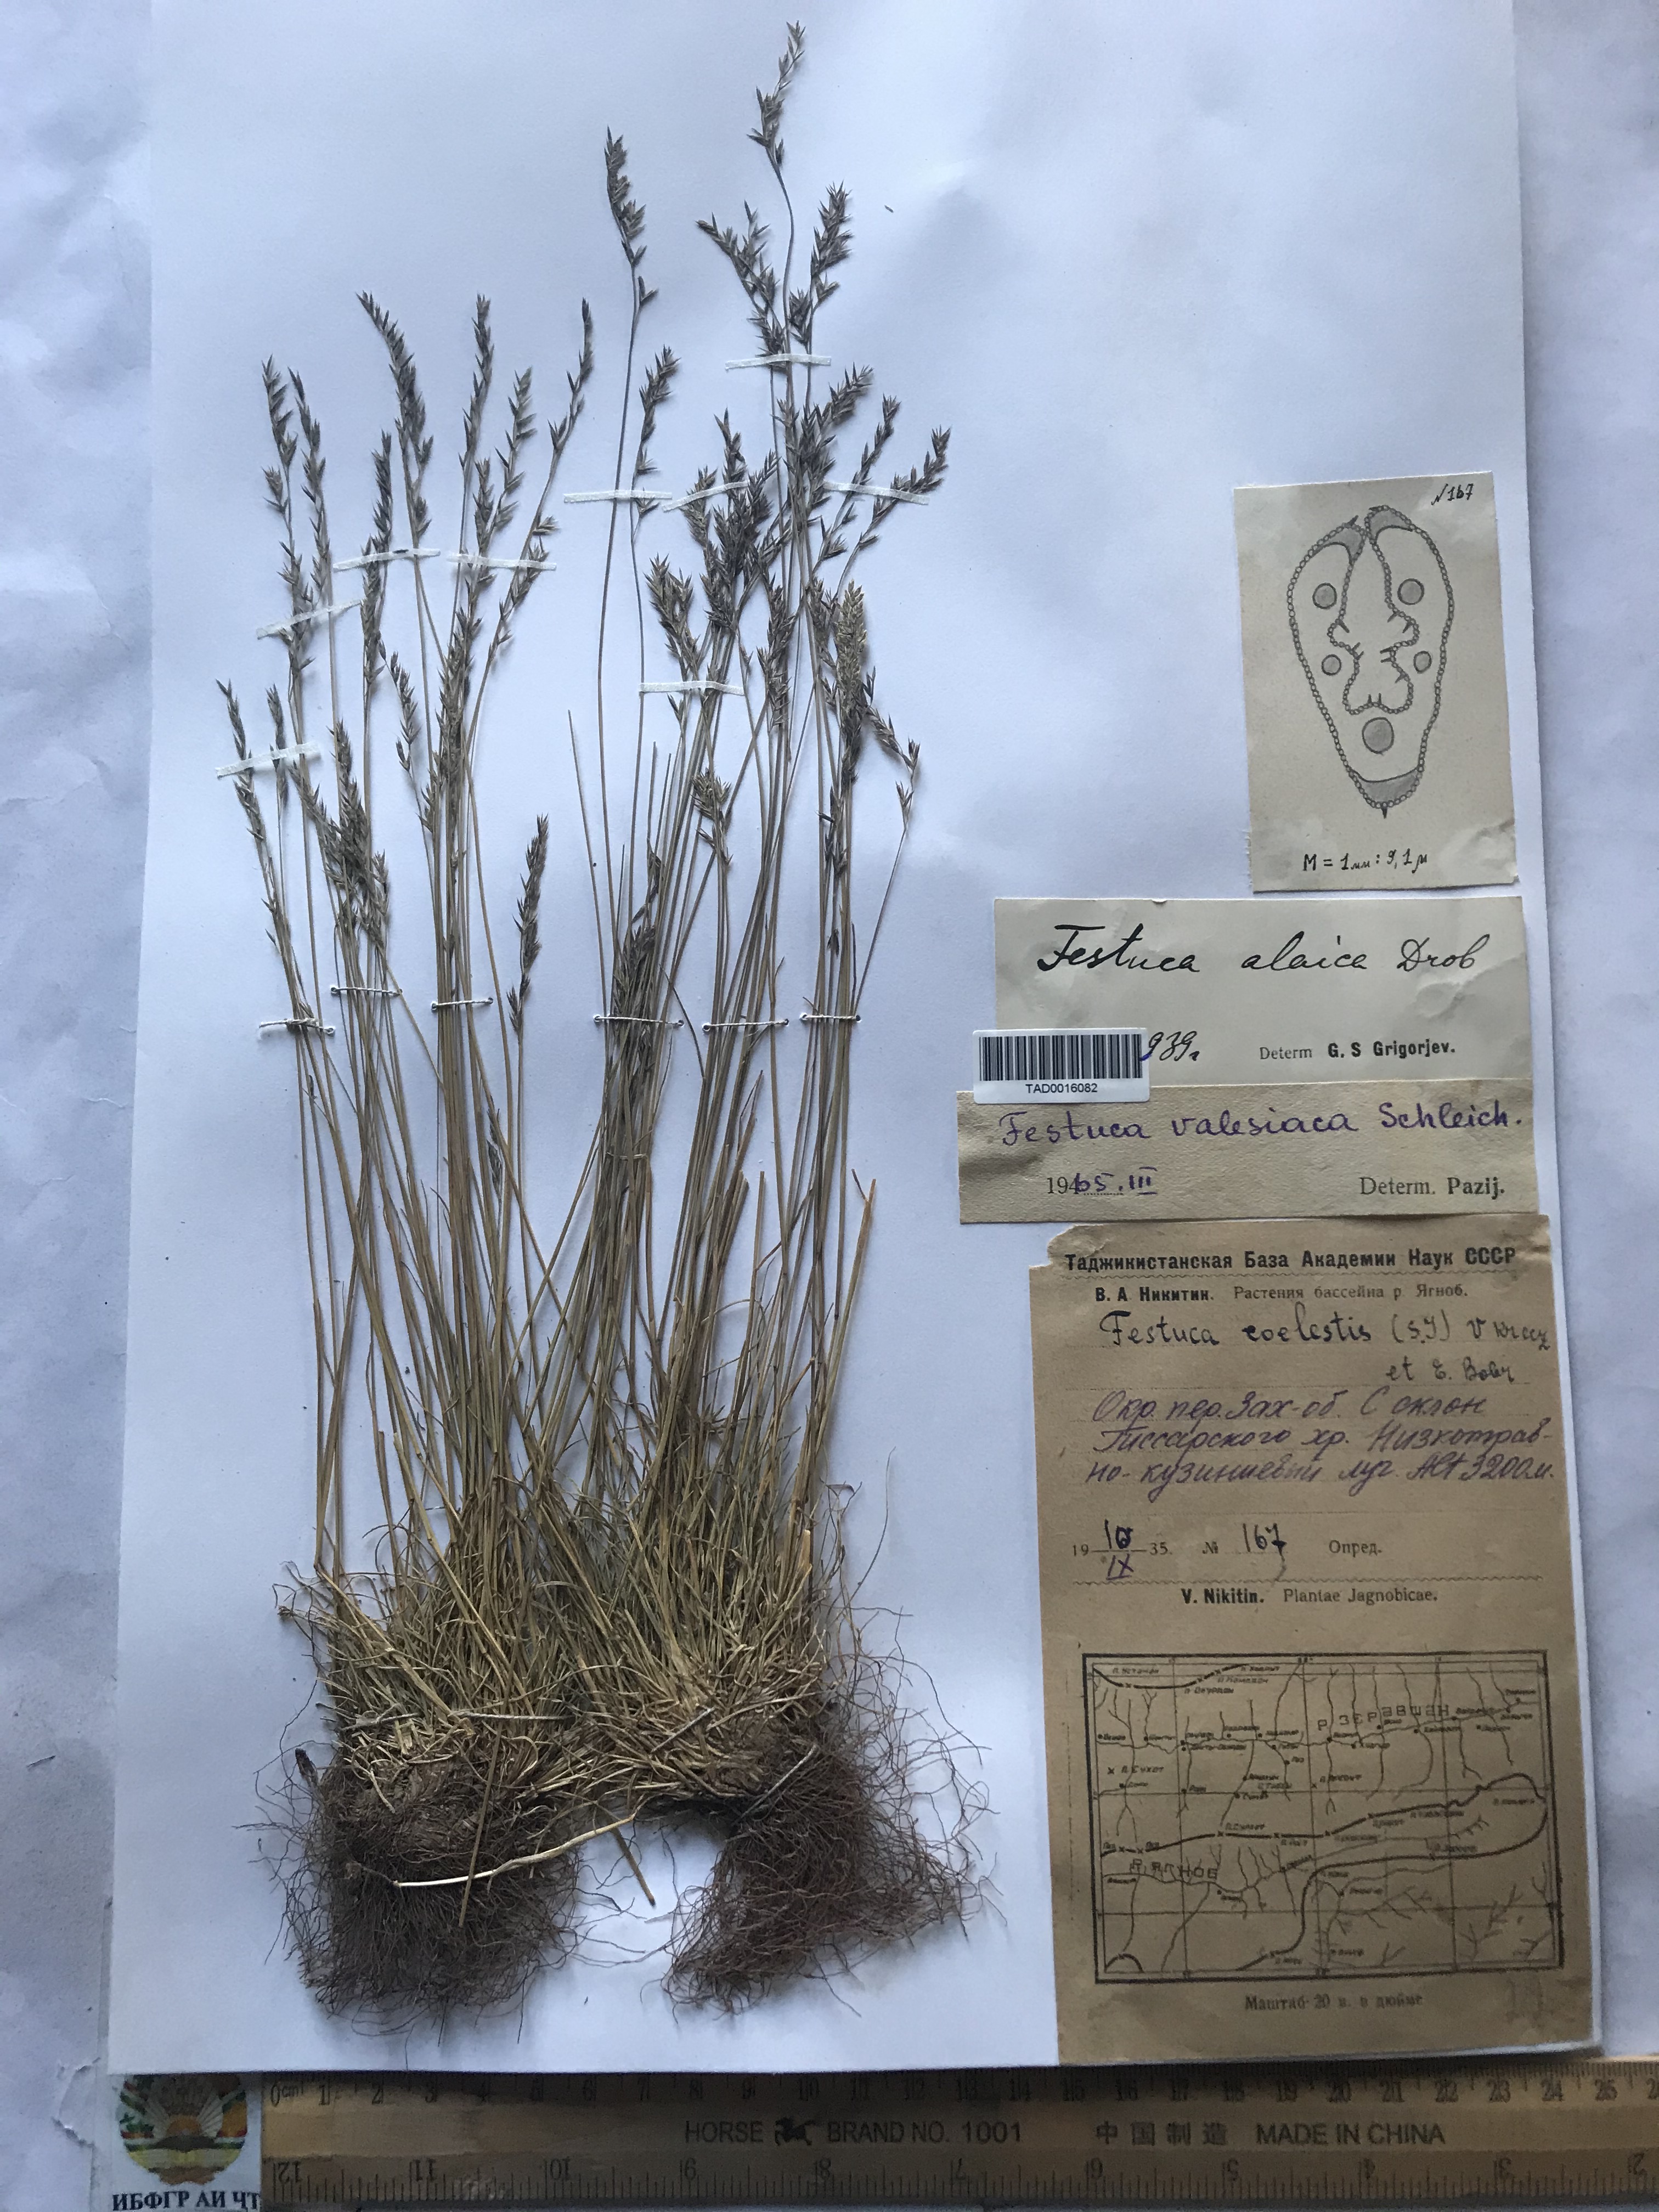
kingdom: Plantae
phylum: Tracheophyta
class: Liliopsida
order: Poales
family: Poaceae
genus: Festuca
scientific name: Festuca valesiaca
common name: Volga fescue
